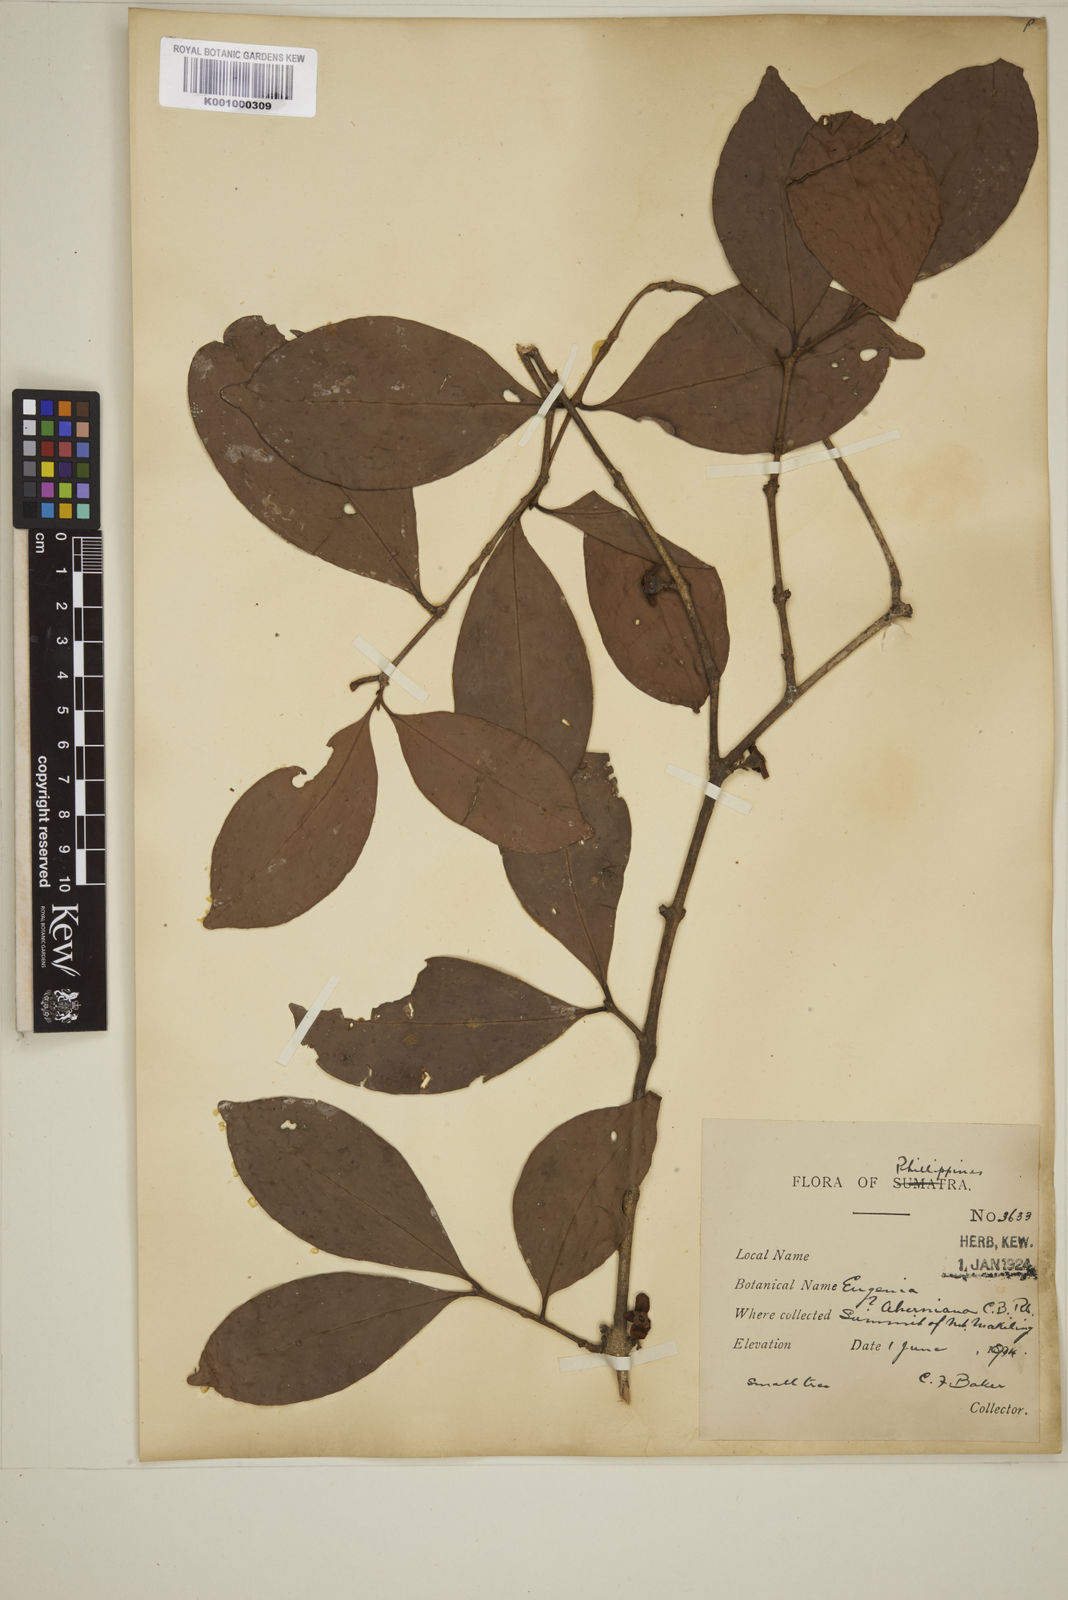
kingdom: Plantae
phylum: Tracheophyta
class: Magnoliopsida
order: Myrtales
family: Myrtaceae
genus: Eugenia
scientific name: Eugenia tulanan
